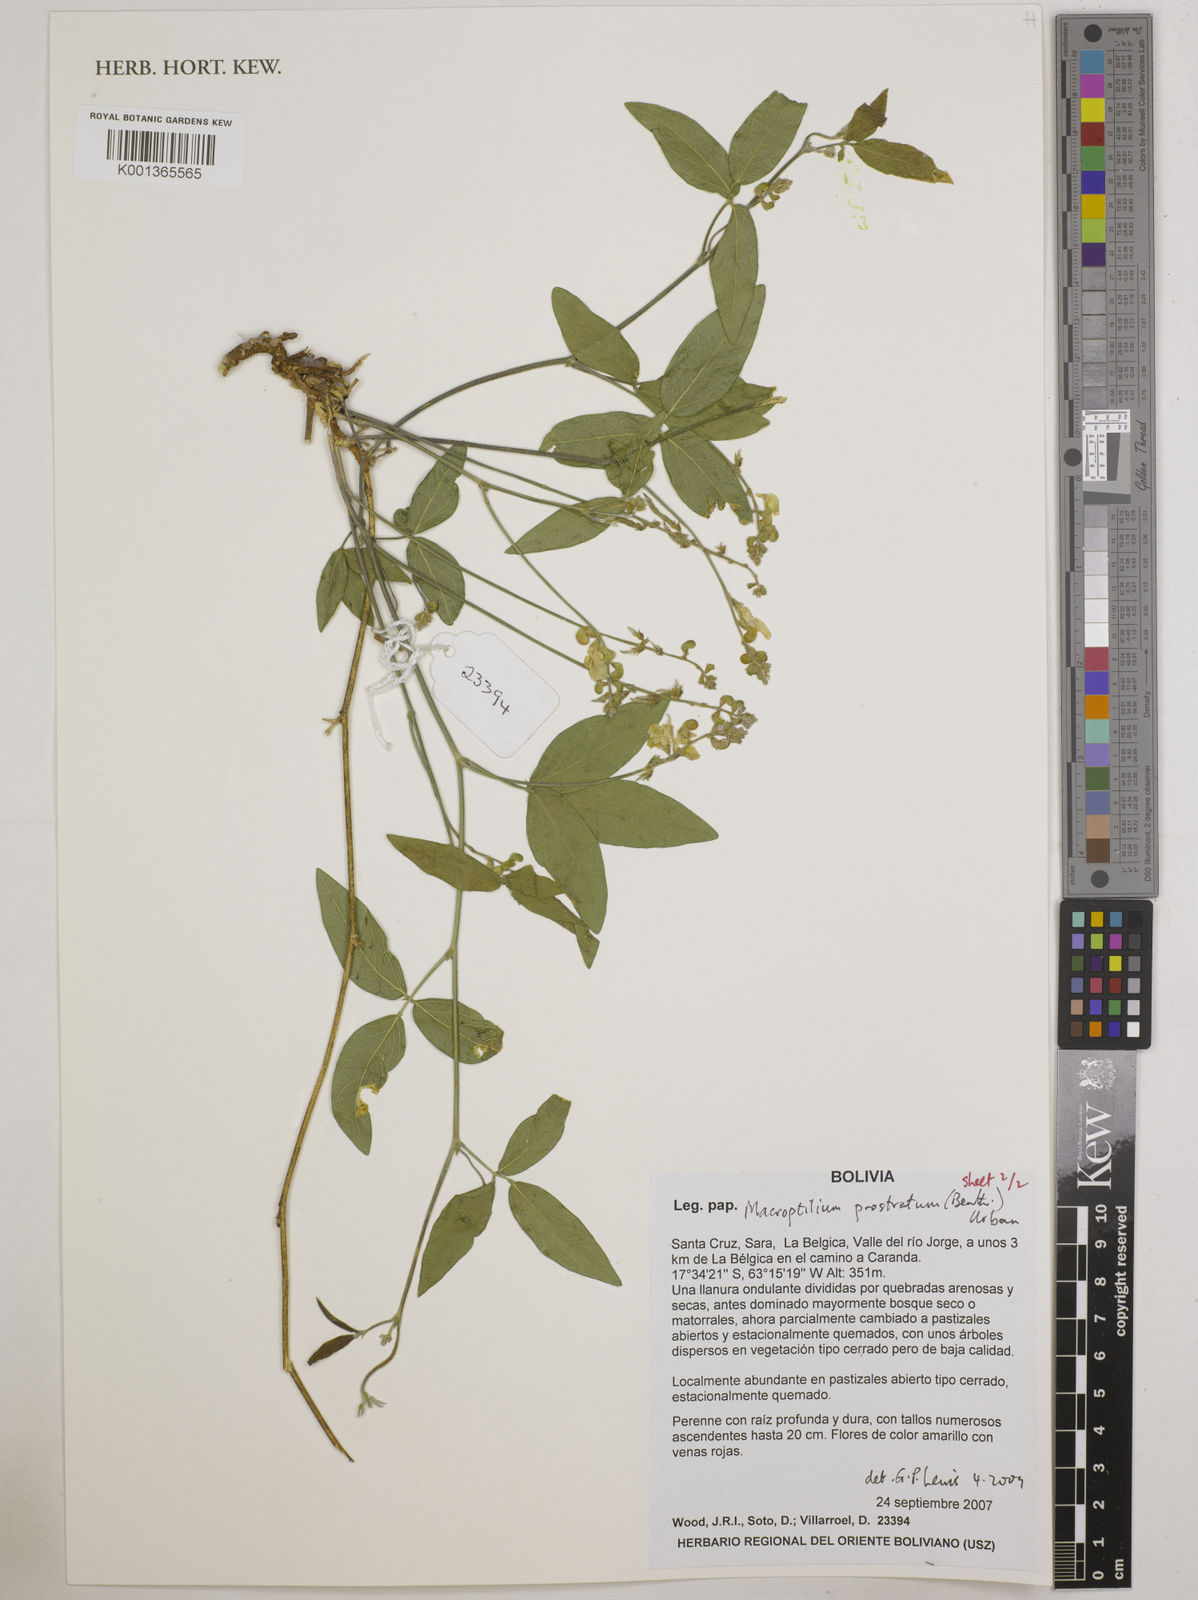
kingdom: Plantae
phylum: Tracheophyta
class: Magnoliopsida
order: Fabales
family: Fabaceae
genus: Macroptilium
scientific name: Macroptilium prostratum
